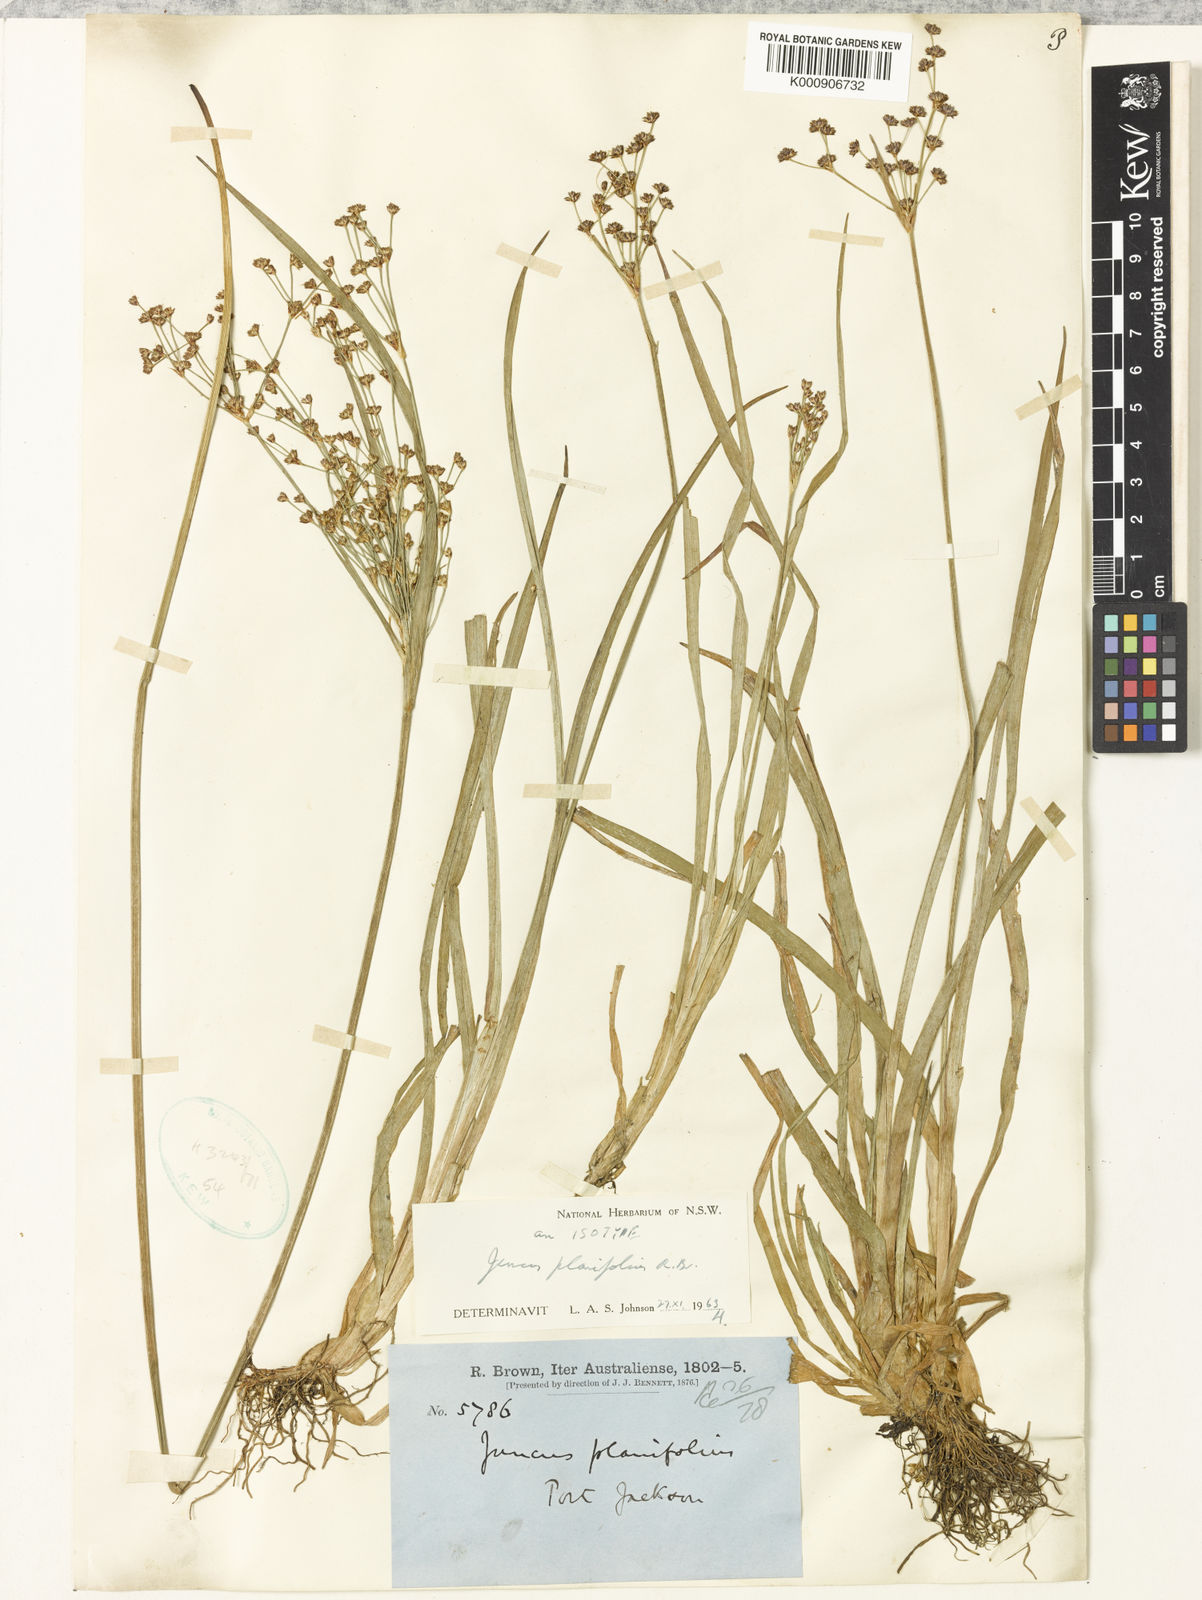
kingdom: Plantae
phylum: Tracheophyta
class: Liliopsida
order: Poales
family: Juncaceae
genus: Juncus
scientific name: Juncus planifolius
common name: Broadleaf rush
